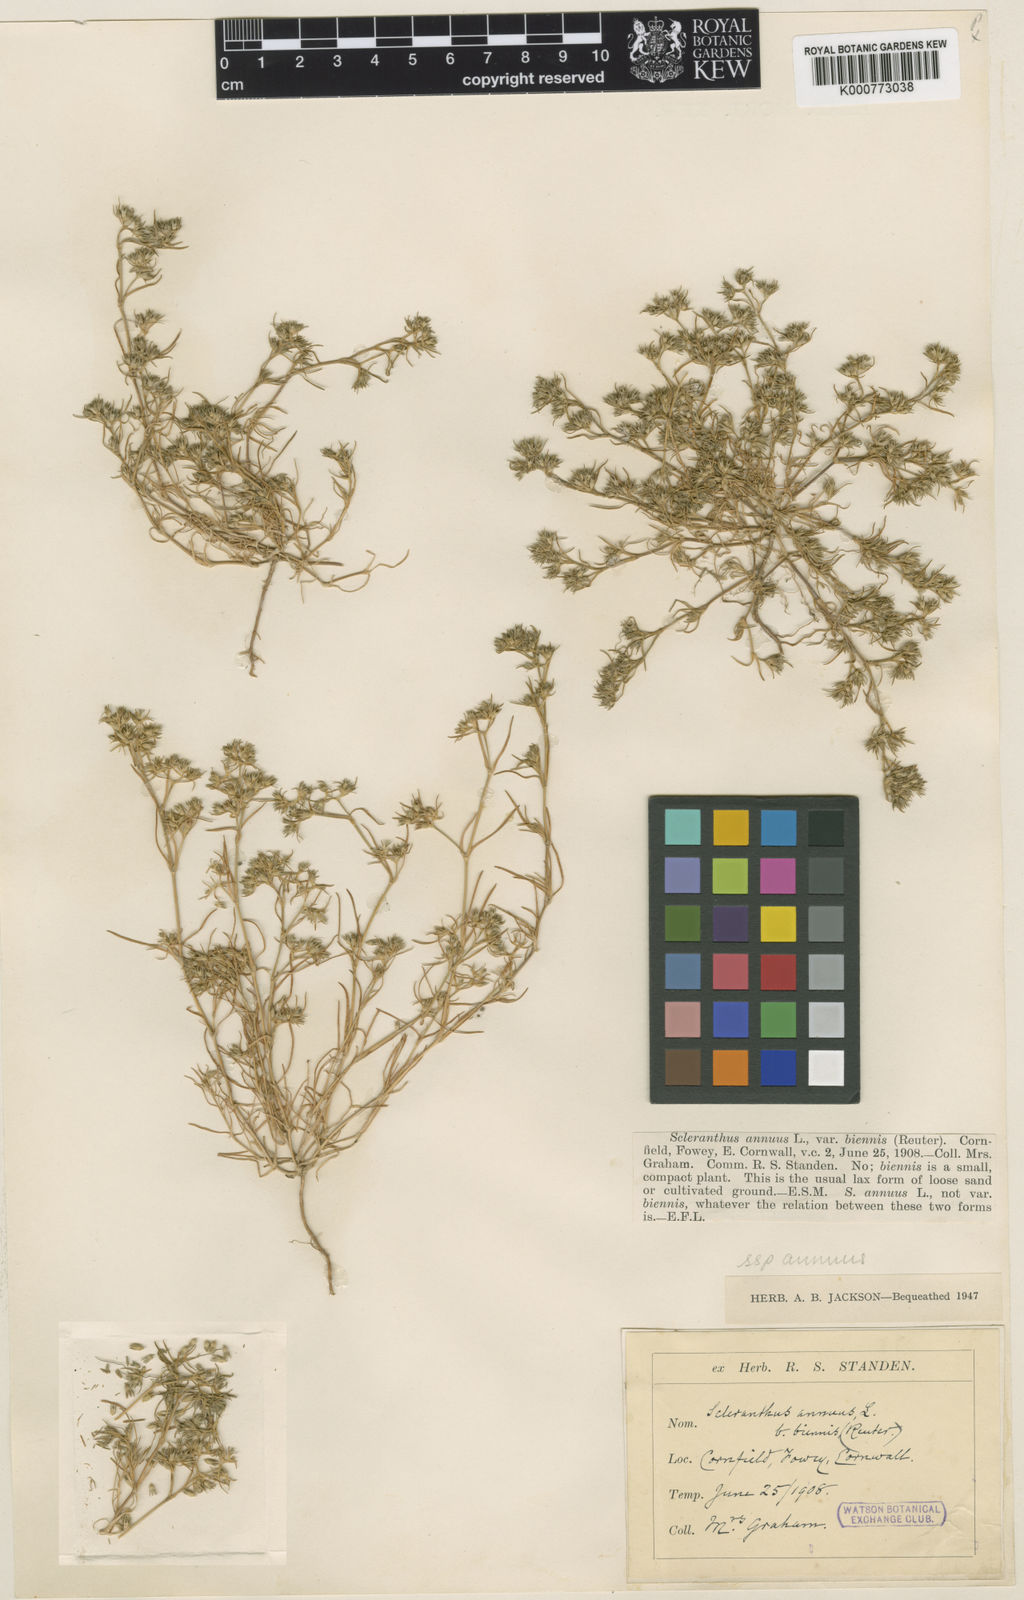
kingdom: Plantae
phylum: Tracheophyta
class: Magnoliopsida
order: Caryophyllales
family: Caryophyllaceae
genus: Scleranthus
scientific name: Scleranthus annuus
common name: Annual knawel
